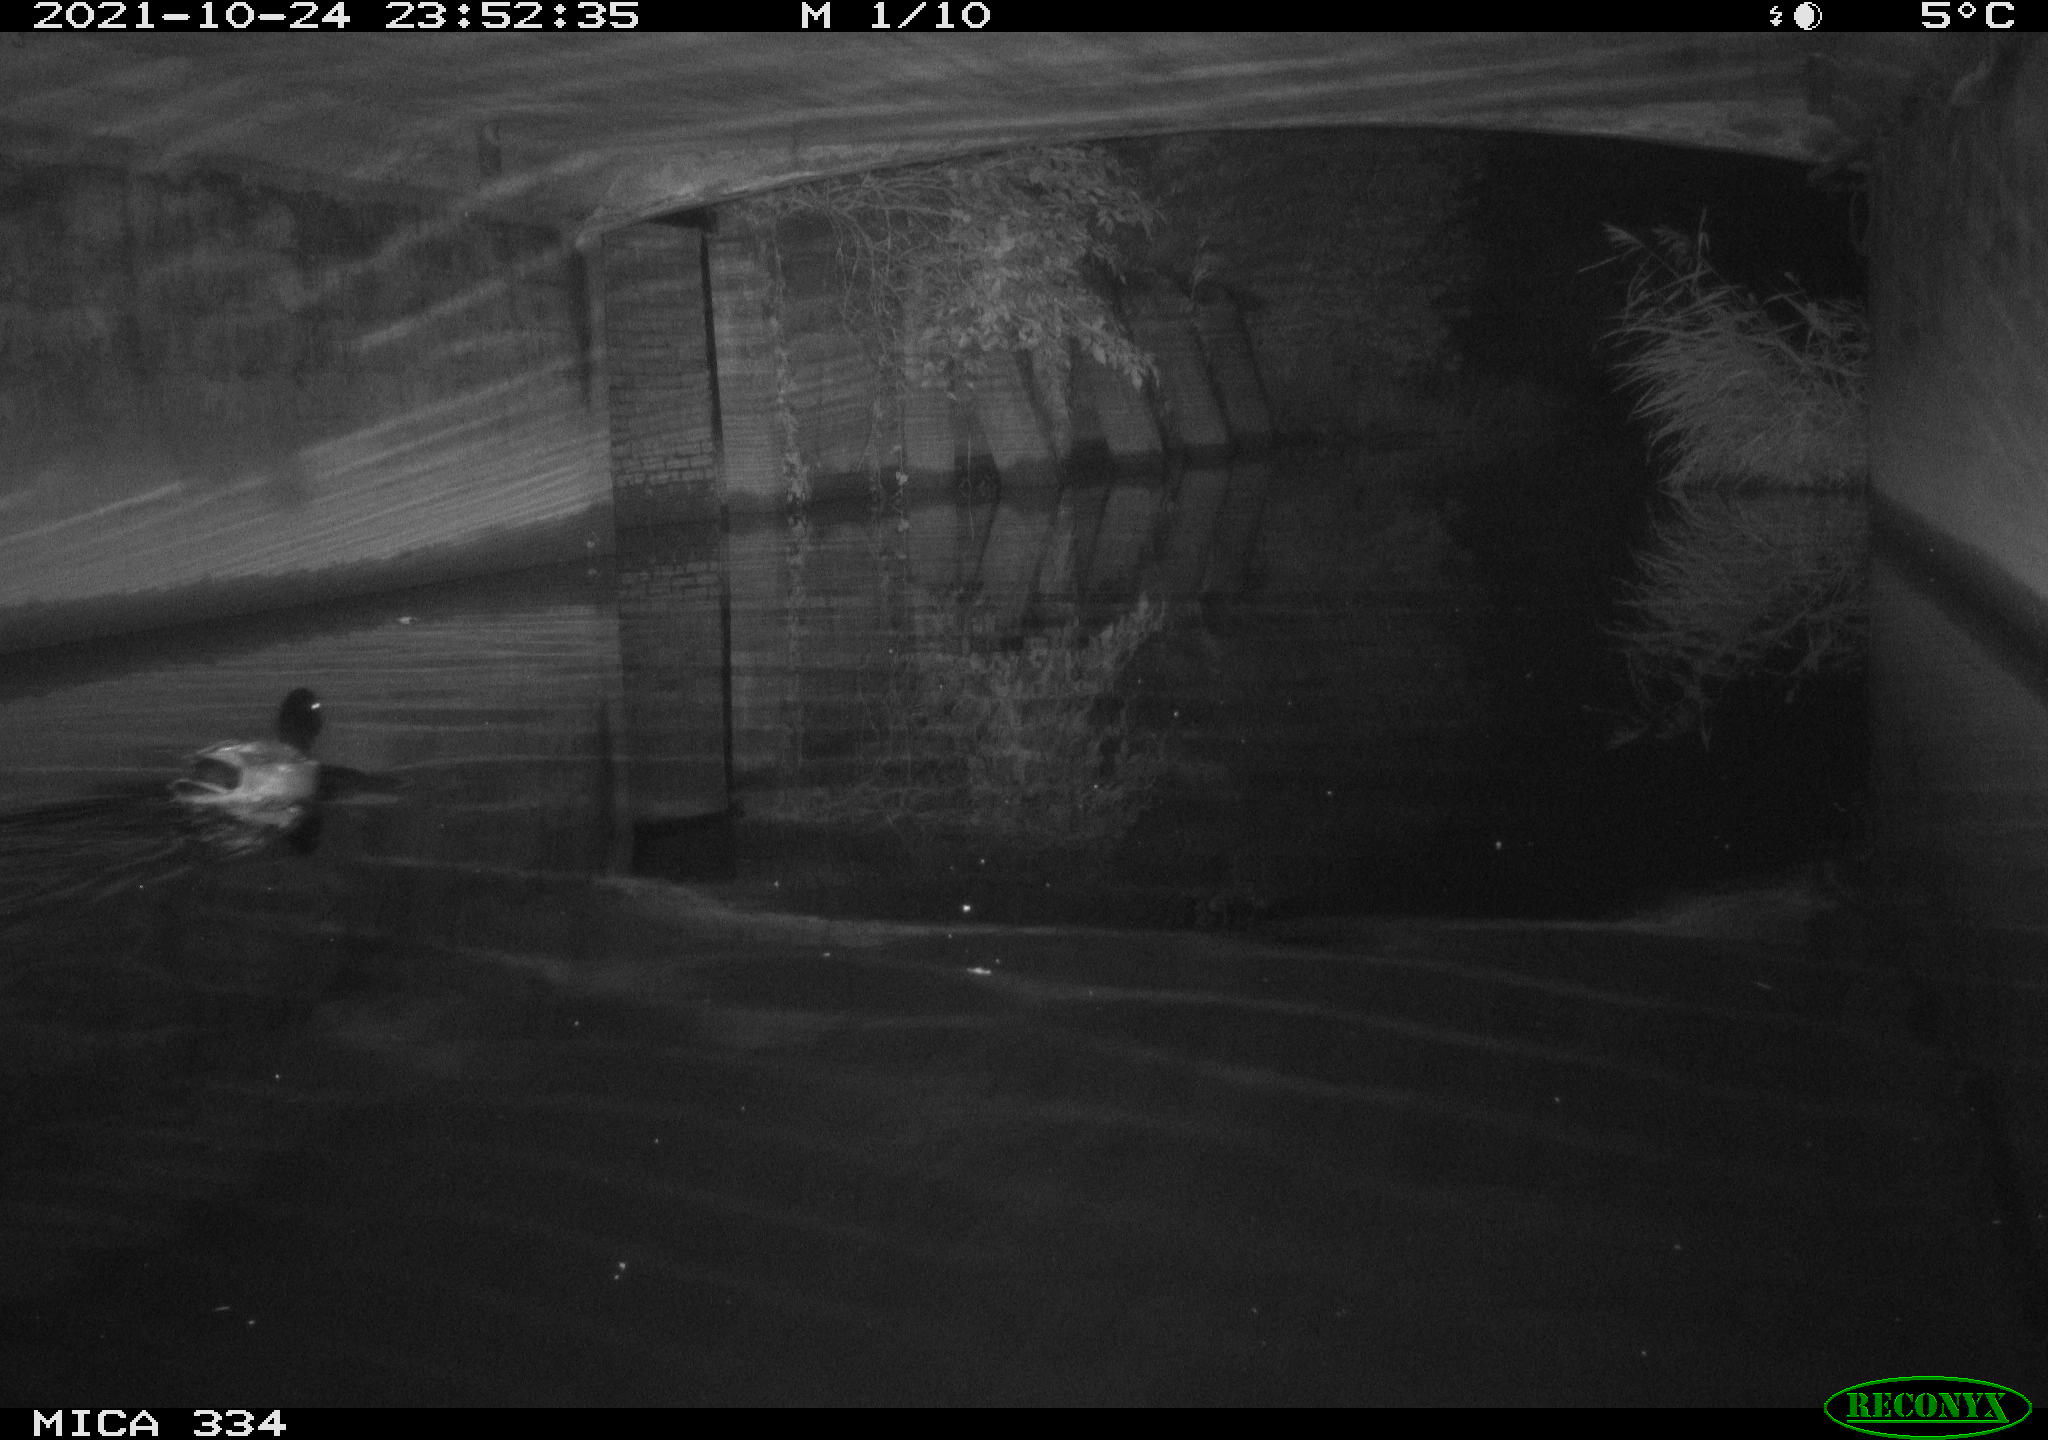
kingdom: Animalia
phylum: Chordata
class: Aves
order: Anseriformes
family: Anatidae
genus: Anas
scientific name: Anas platyrhynchos
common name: Mallard
